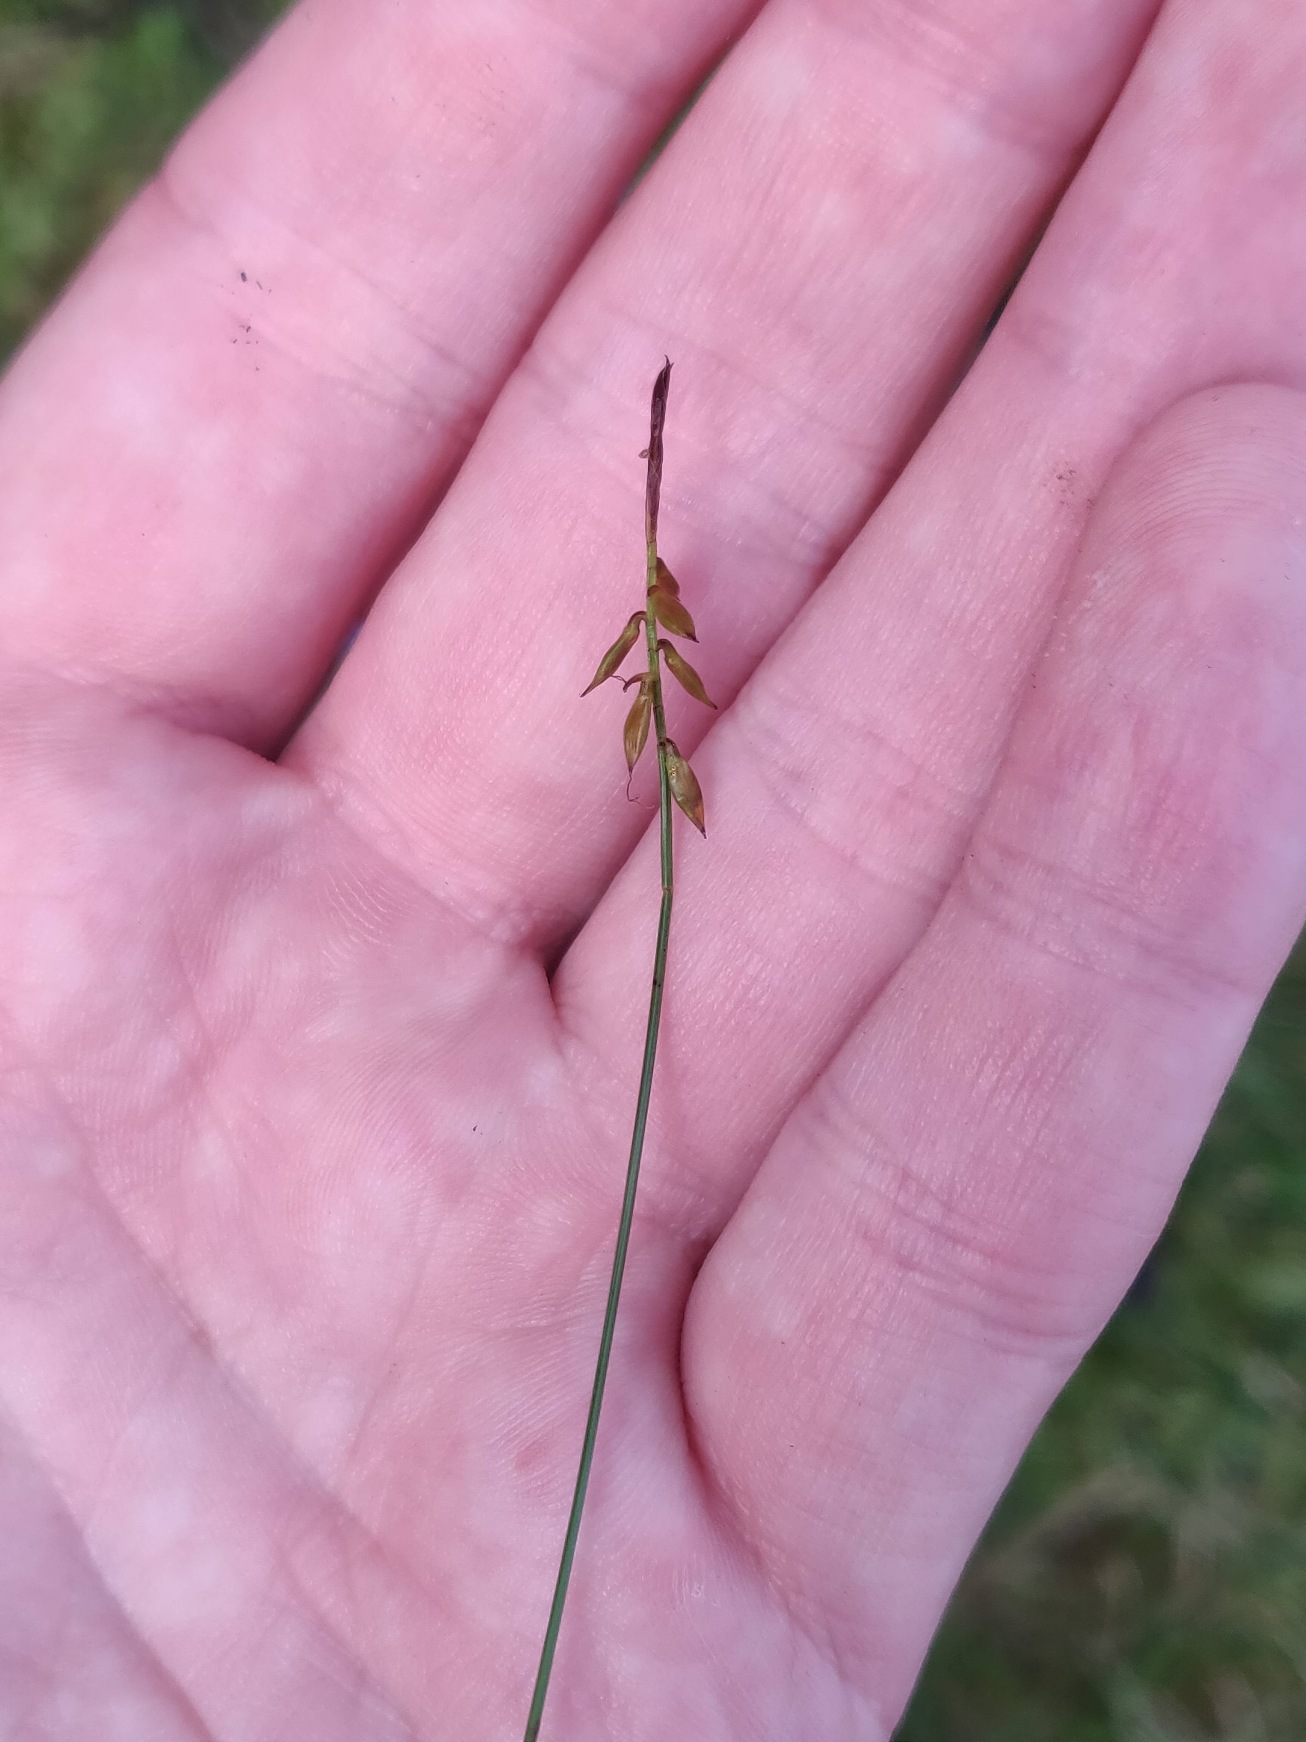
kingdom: Plantae
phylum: Tracheophyta
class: Liliopsida
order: Poales
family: Cyperaceae
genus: Carex
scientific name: Carex pulicaris
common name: Loppe-star
